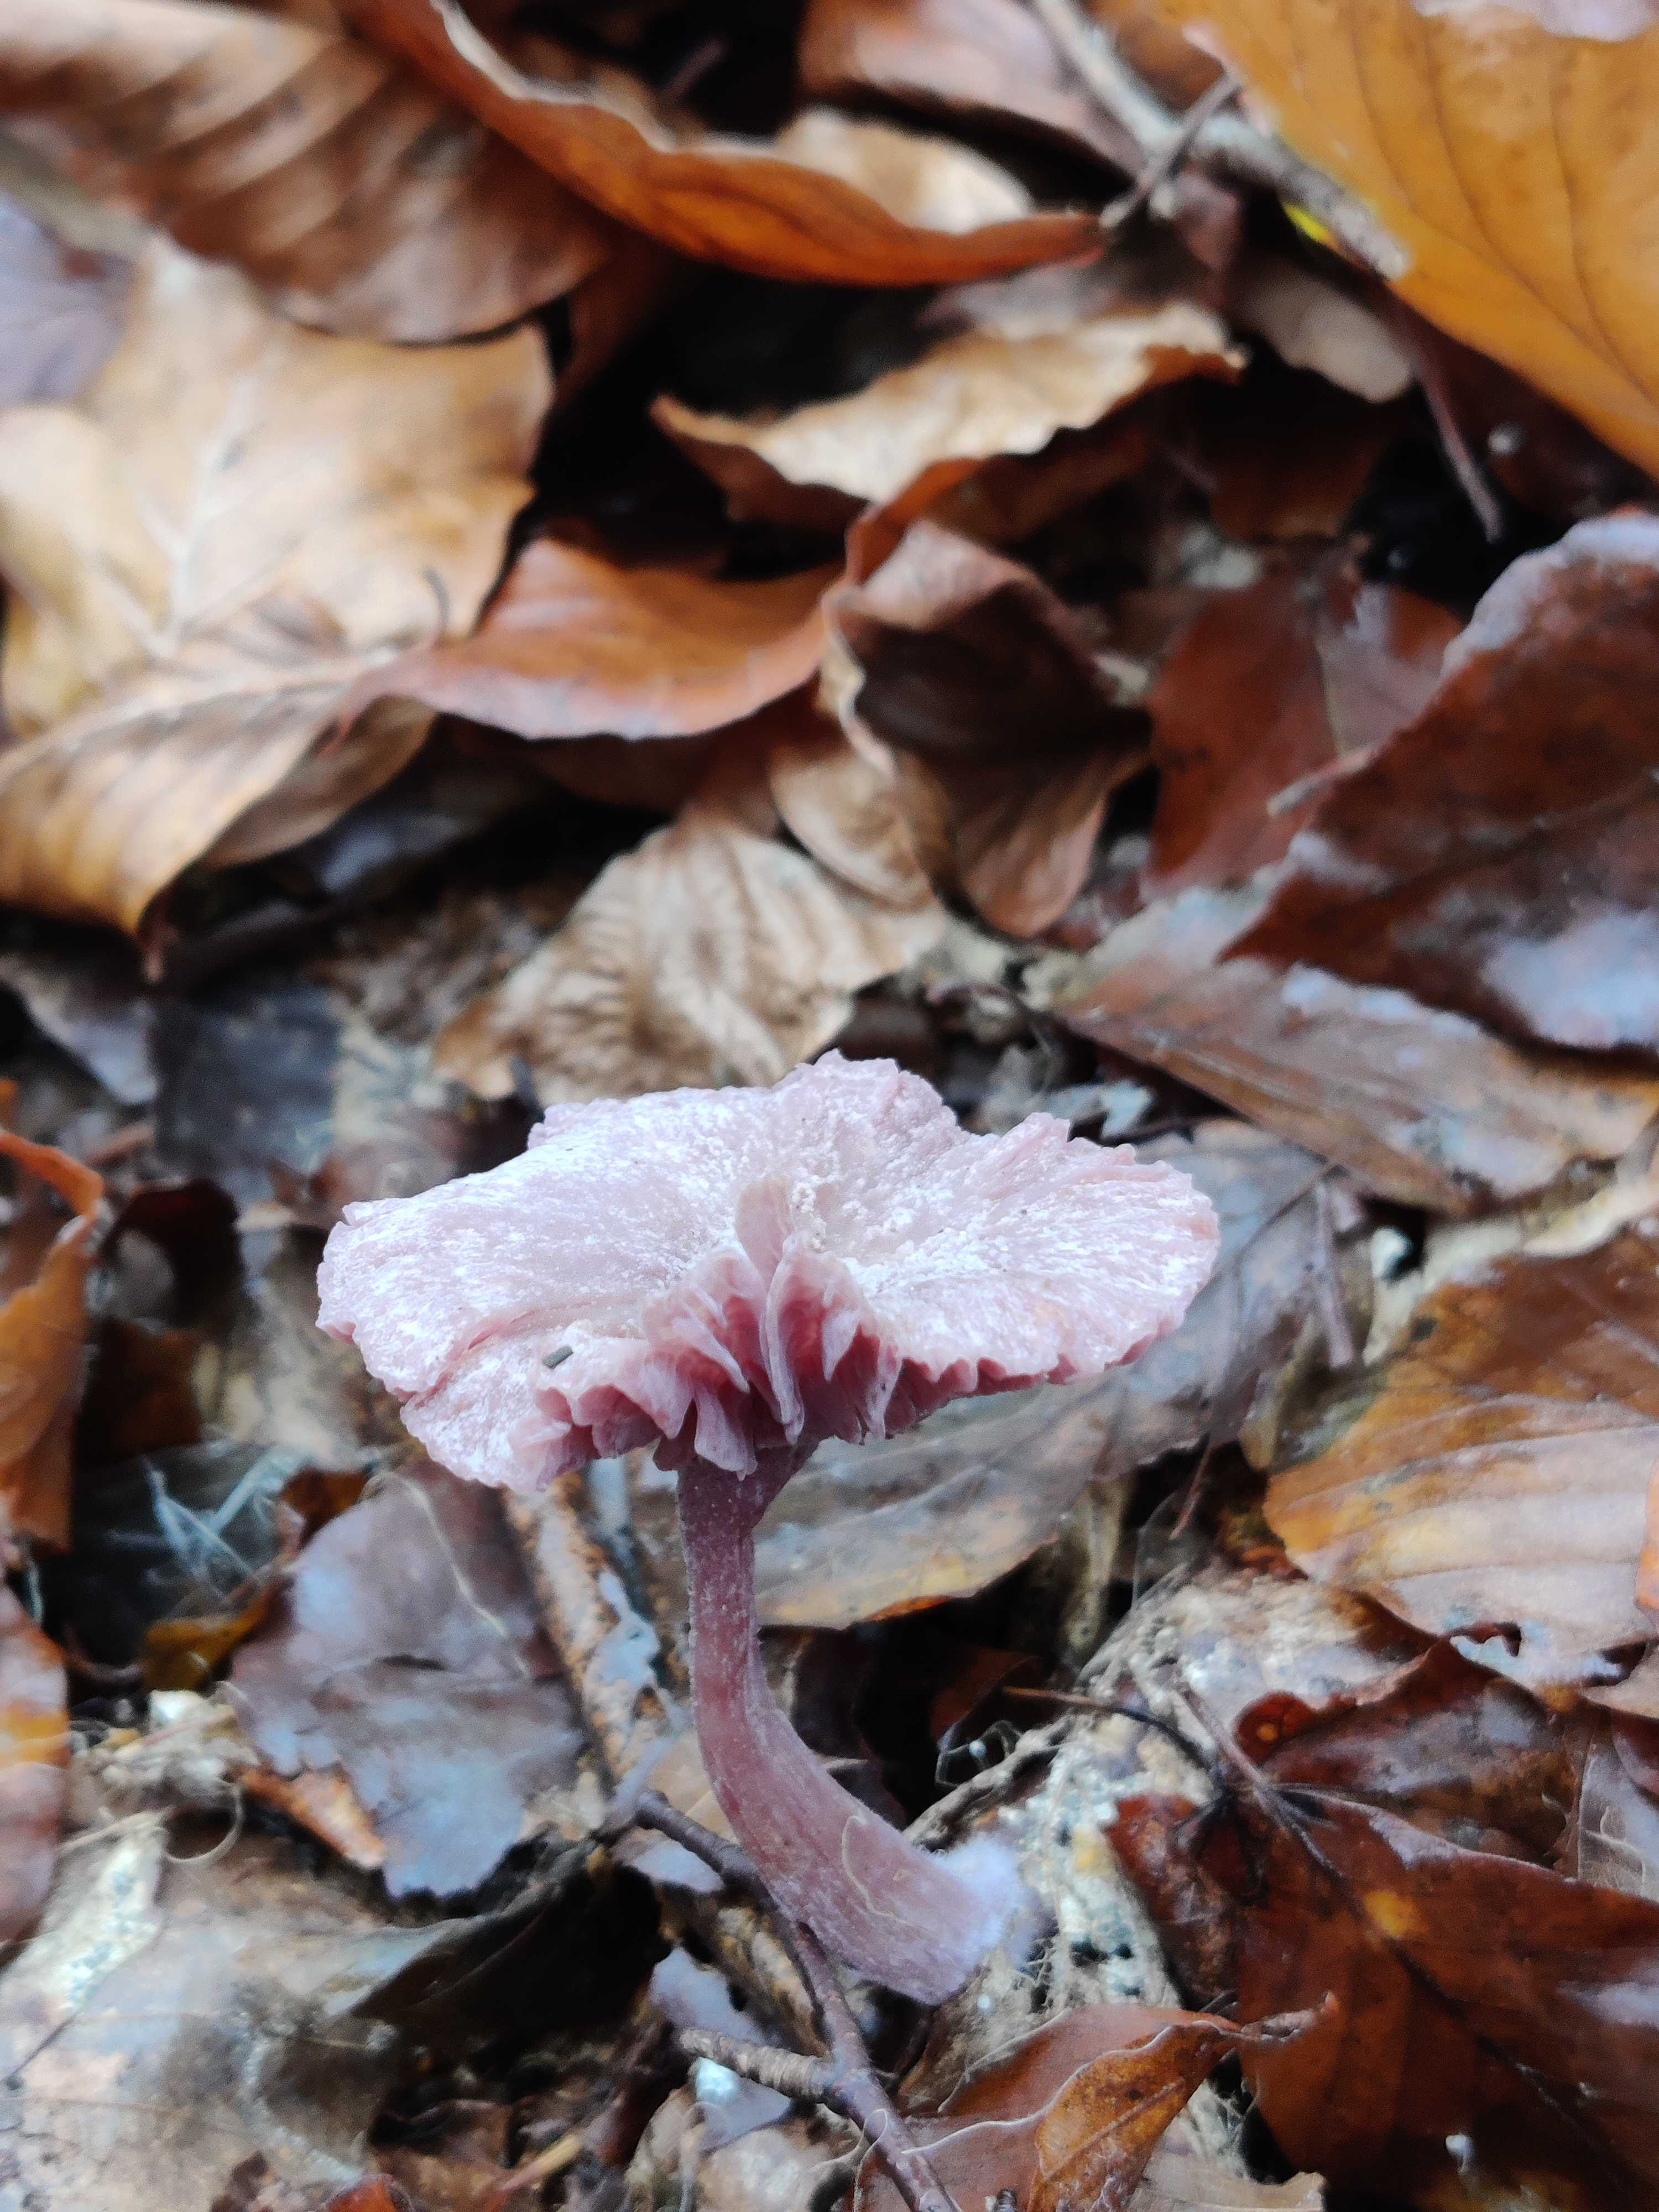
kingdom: Fungi
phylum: Basidiomycota
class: Agaricomycetes
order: Agaricales
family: Hydnangiaceae
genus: Laccaria
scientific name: Laccaria amethystina
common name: violet ametysthat
